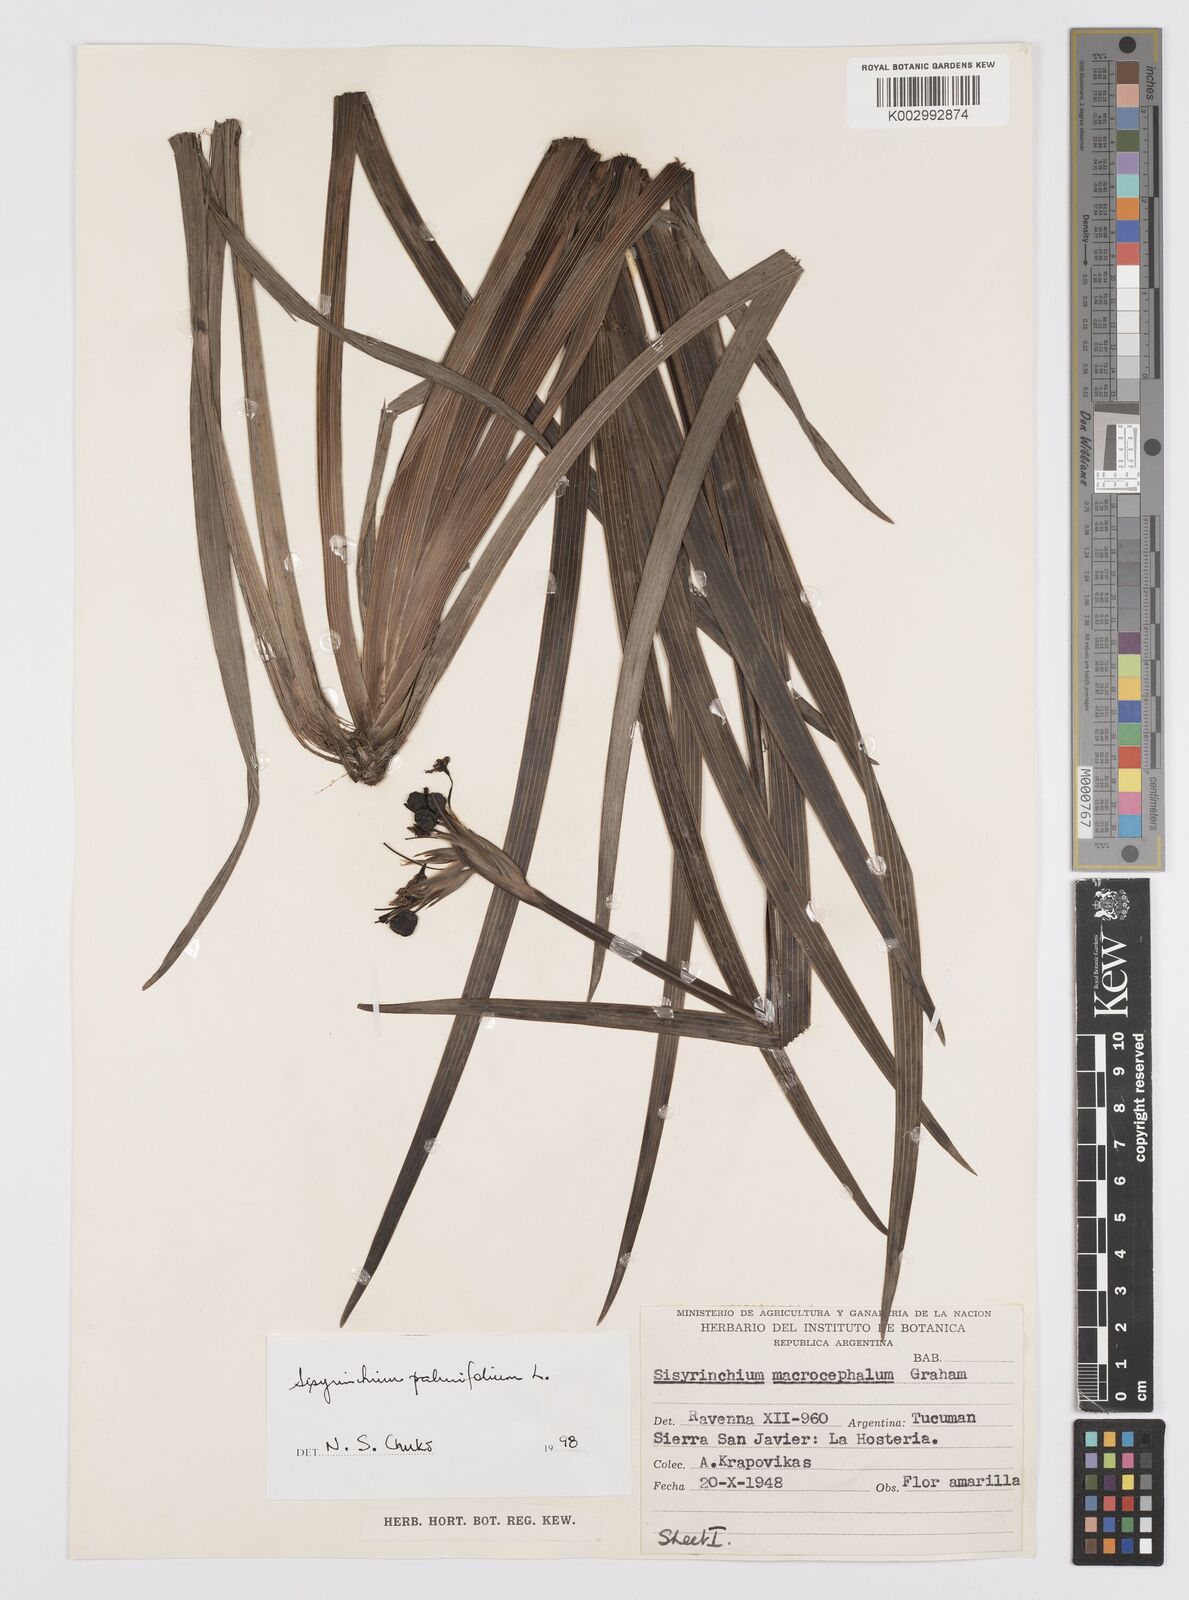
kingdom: Plantae
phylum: Tracheophyta
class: Liliopsida
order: Asparagales
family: Iridaceae
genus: Sisyrinchium
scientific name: Sisyrinchium palmifolium
